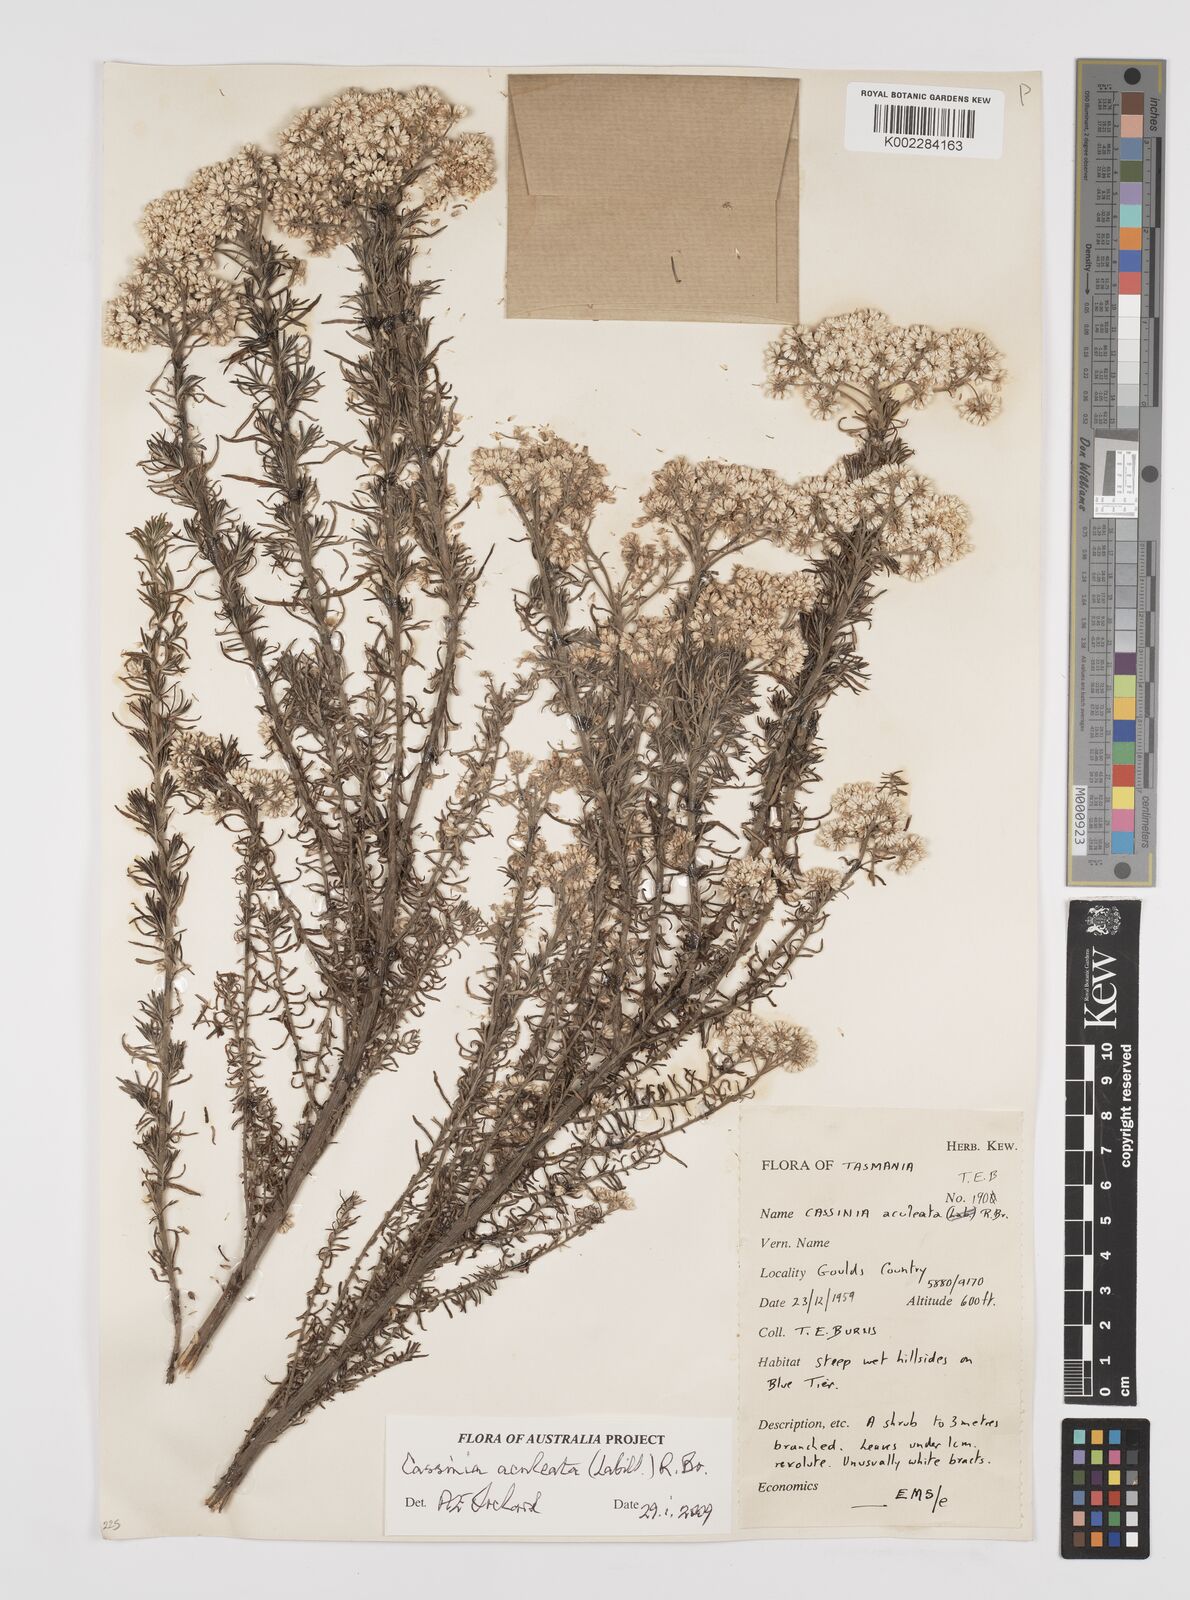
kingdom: Plantae
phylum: Tracheophyta
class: Magnoliopsida
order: Asterales
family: Asteraceae
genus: Cassinia
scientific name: Cassinia aculeata
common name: Australian tauhinu
